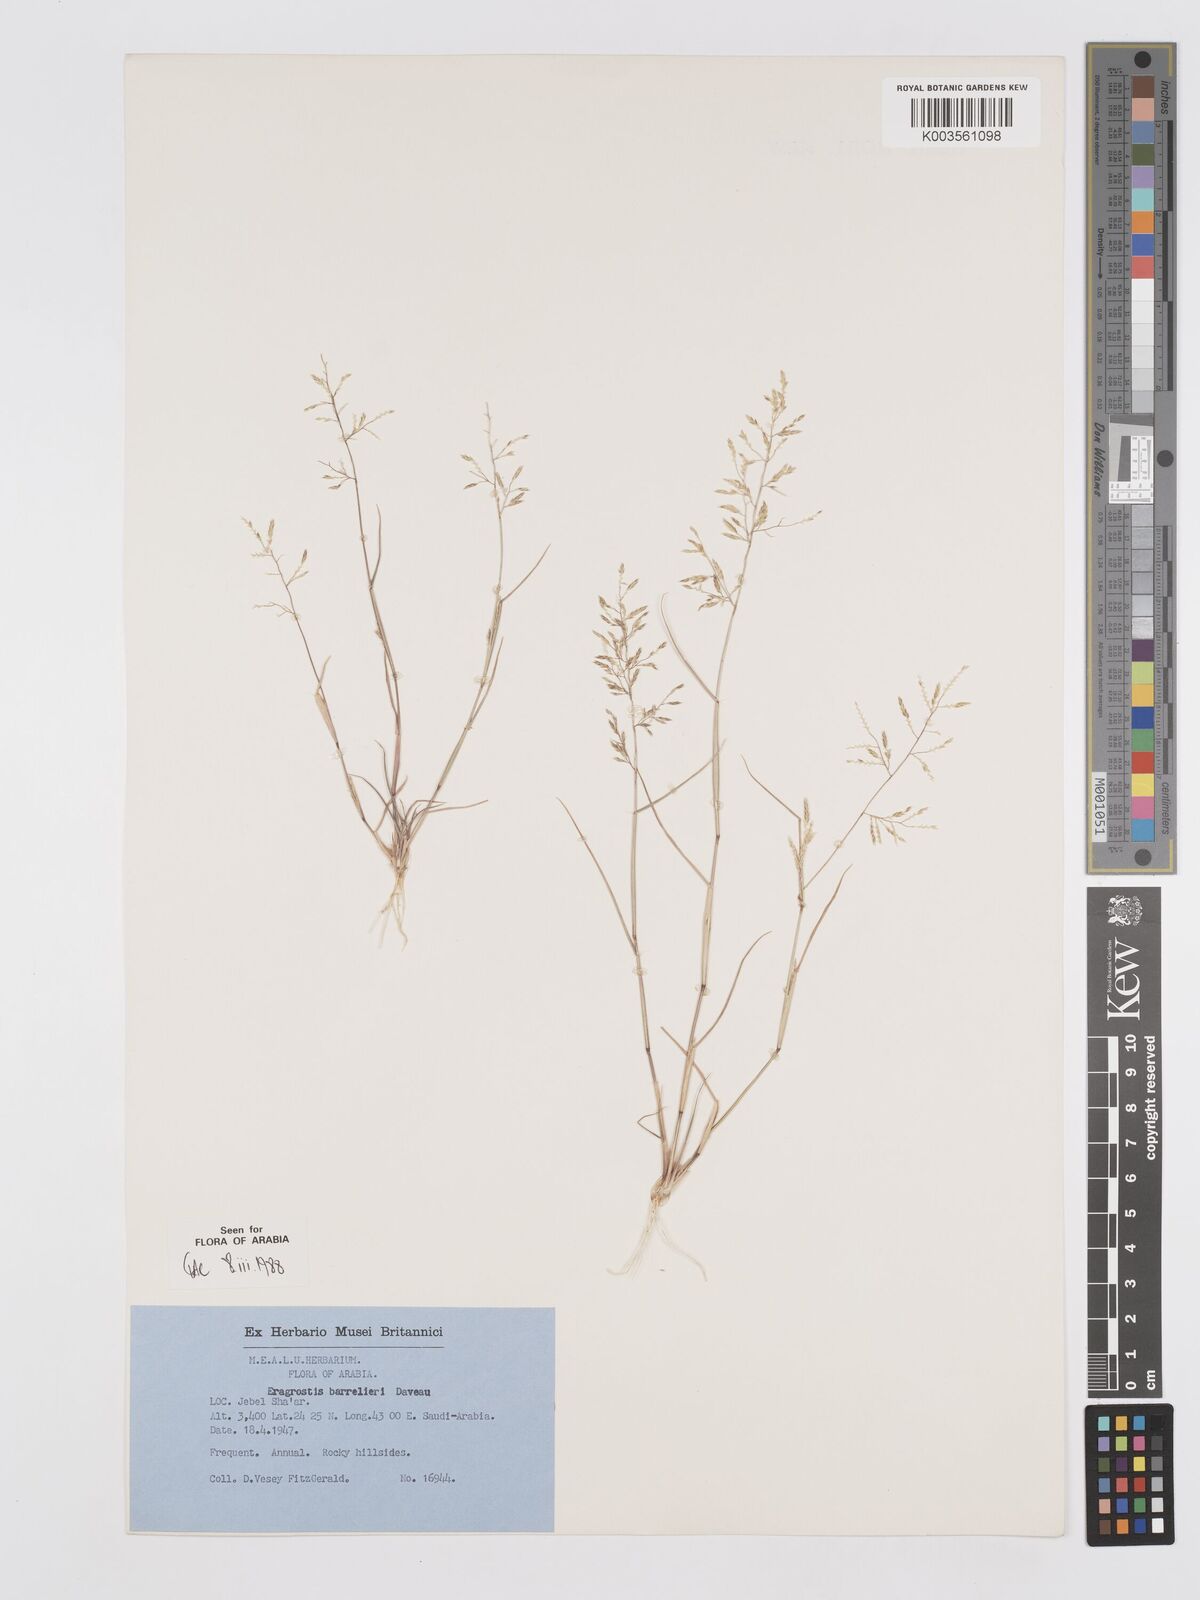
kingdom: Plantae
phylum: Tracheophyta
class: Liliopsida
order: Poales
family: Poaceae
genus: Eragrostis
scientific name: Eragrostis barrelieri
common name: Mediterranean lovegrass
